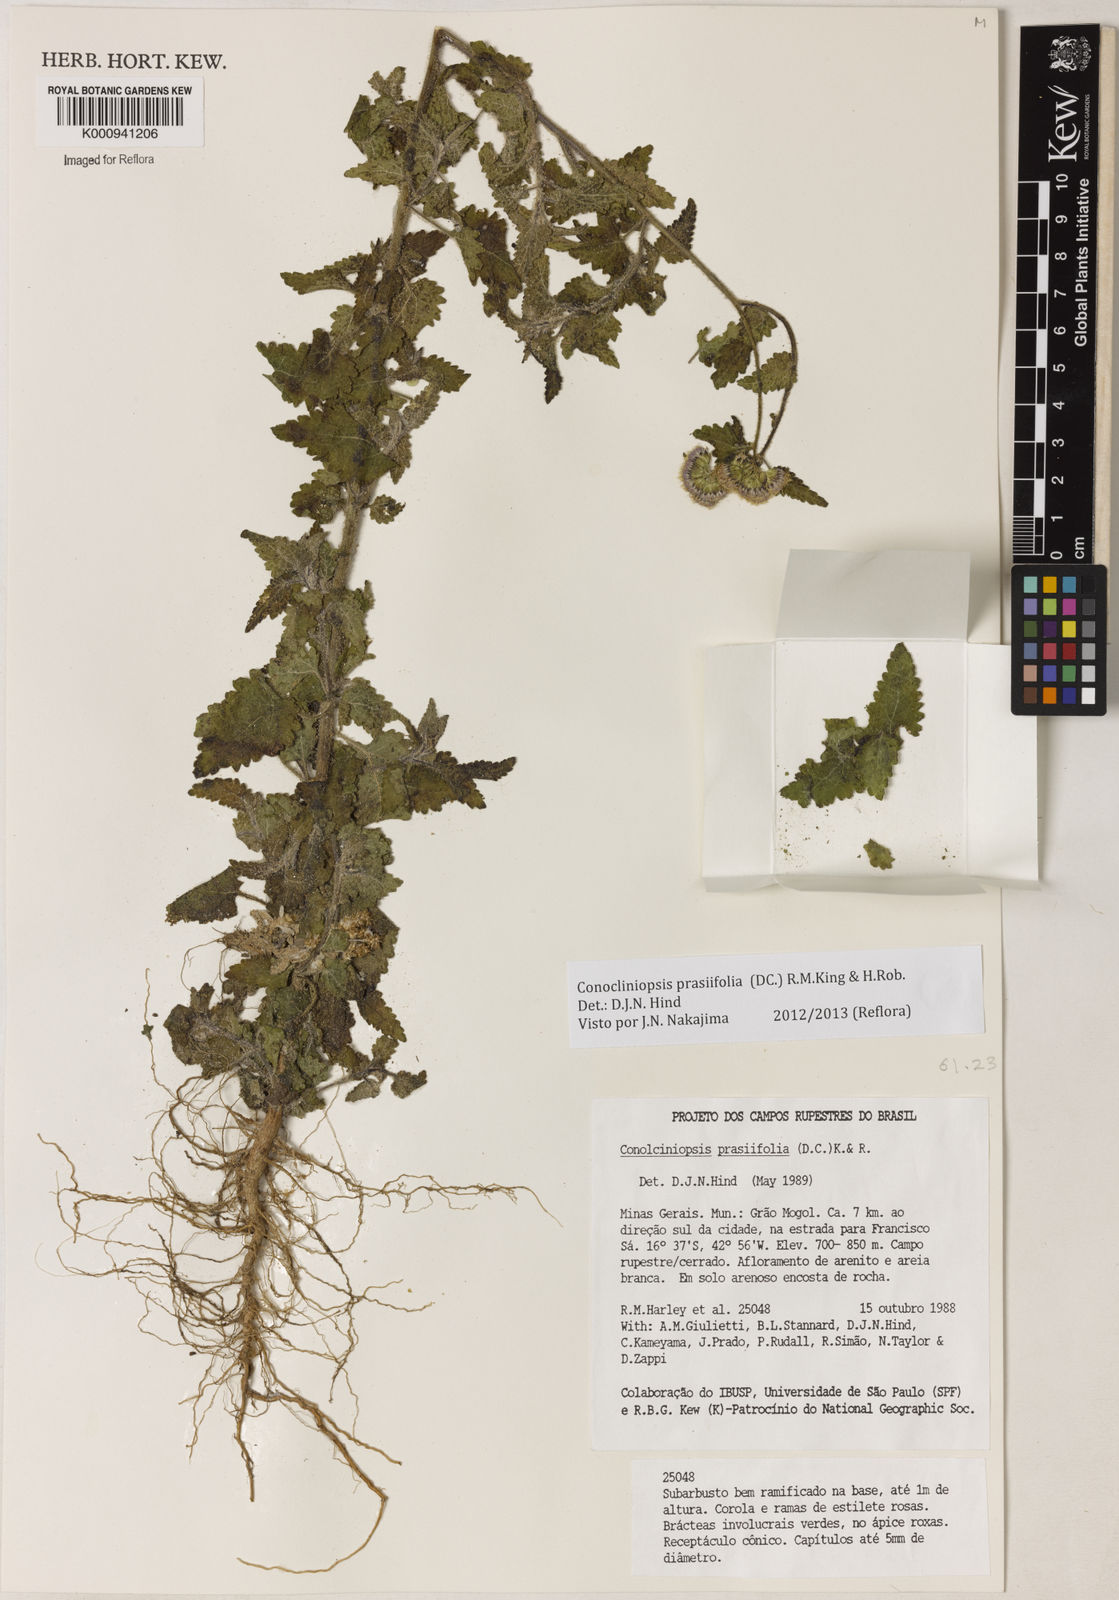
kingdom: Plantae
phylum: Tracheophyta
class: Magnoliopsida
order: Asterales
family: Asteraceae
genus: Conocliniopsis
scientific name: Conocliniopsis grossedentata
